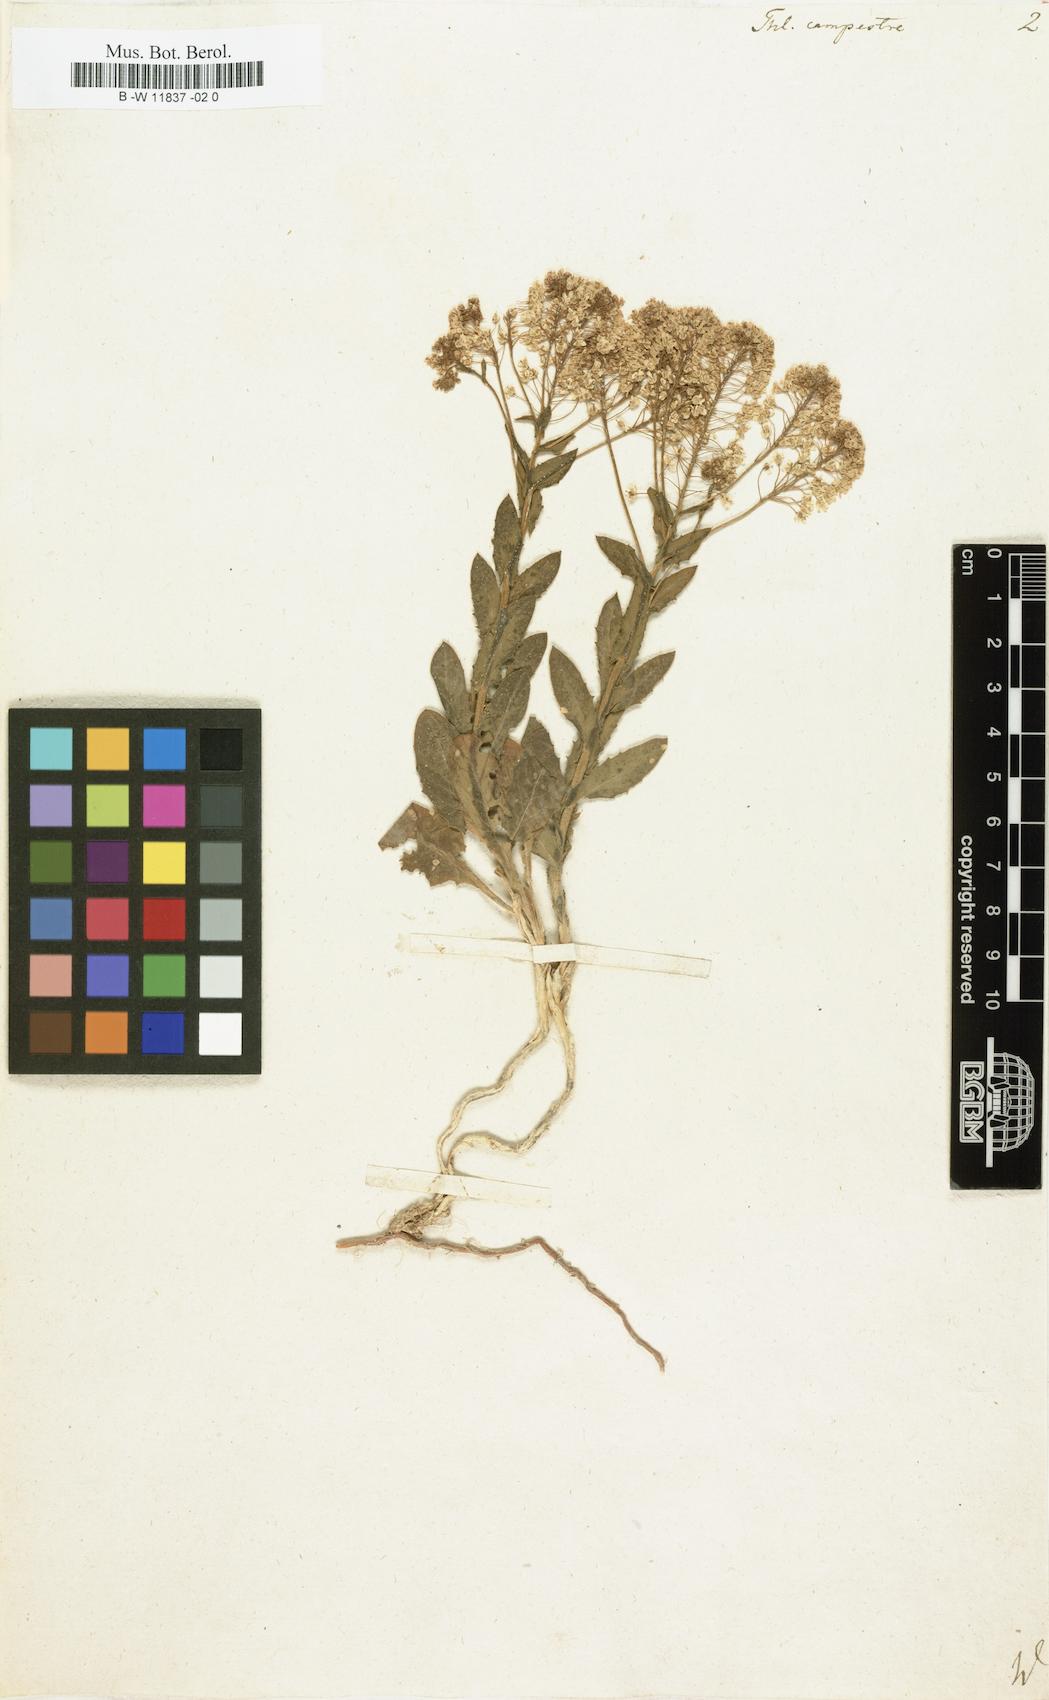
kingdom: Plantae
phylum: Tracheophyta
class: Magnoliopsida
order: Brassicales
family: Brassicaceae
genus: Lepidium
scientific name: Lepidium campestre
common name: Field pepperwort
